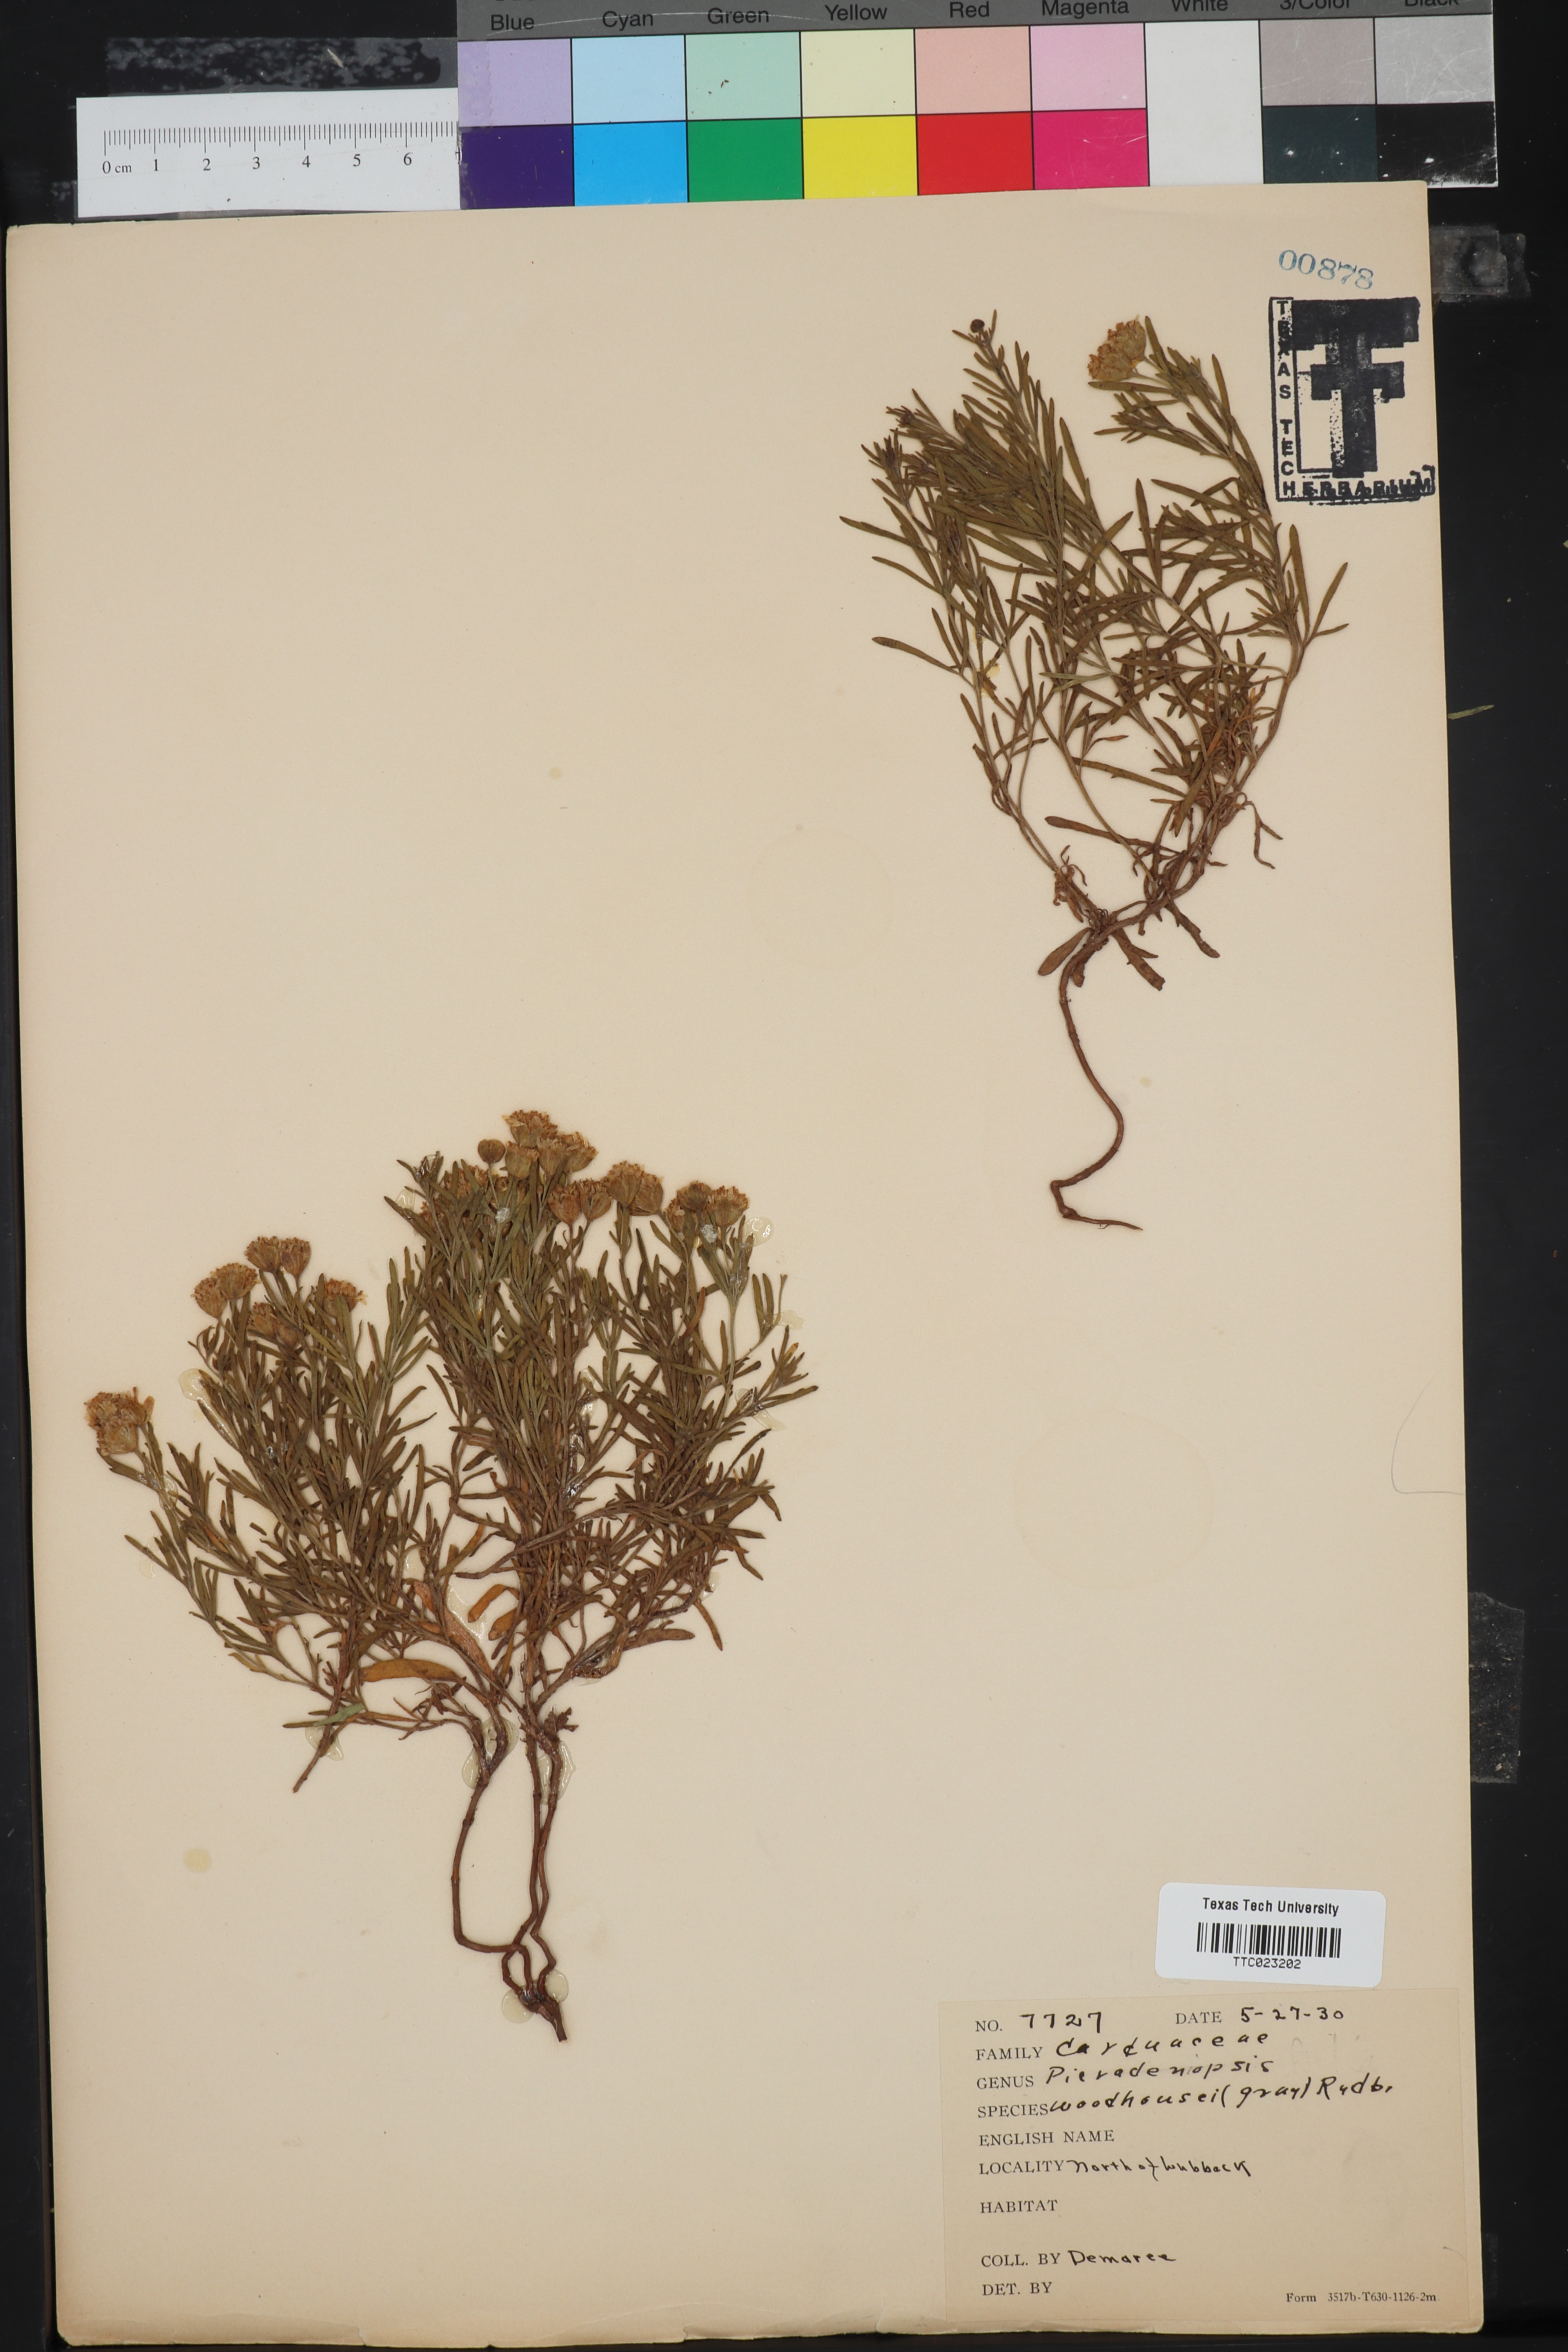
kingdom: Plantae
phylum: Tracheophyta
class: Magnoliopsida
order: Asterales
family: Asteraceae
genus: Picradeniopsis
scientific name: Picradeniopsis woodhousei
